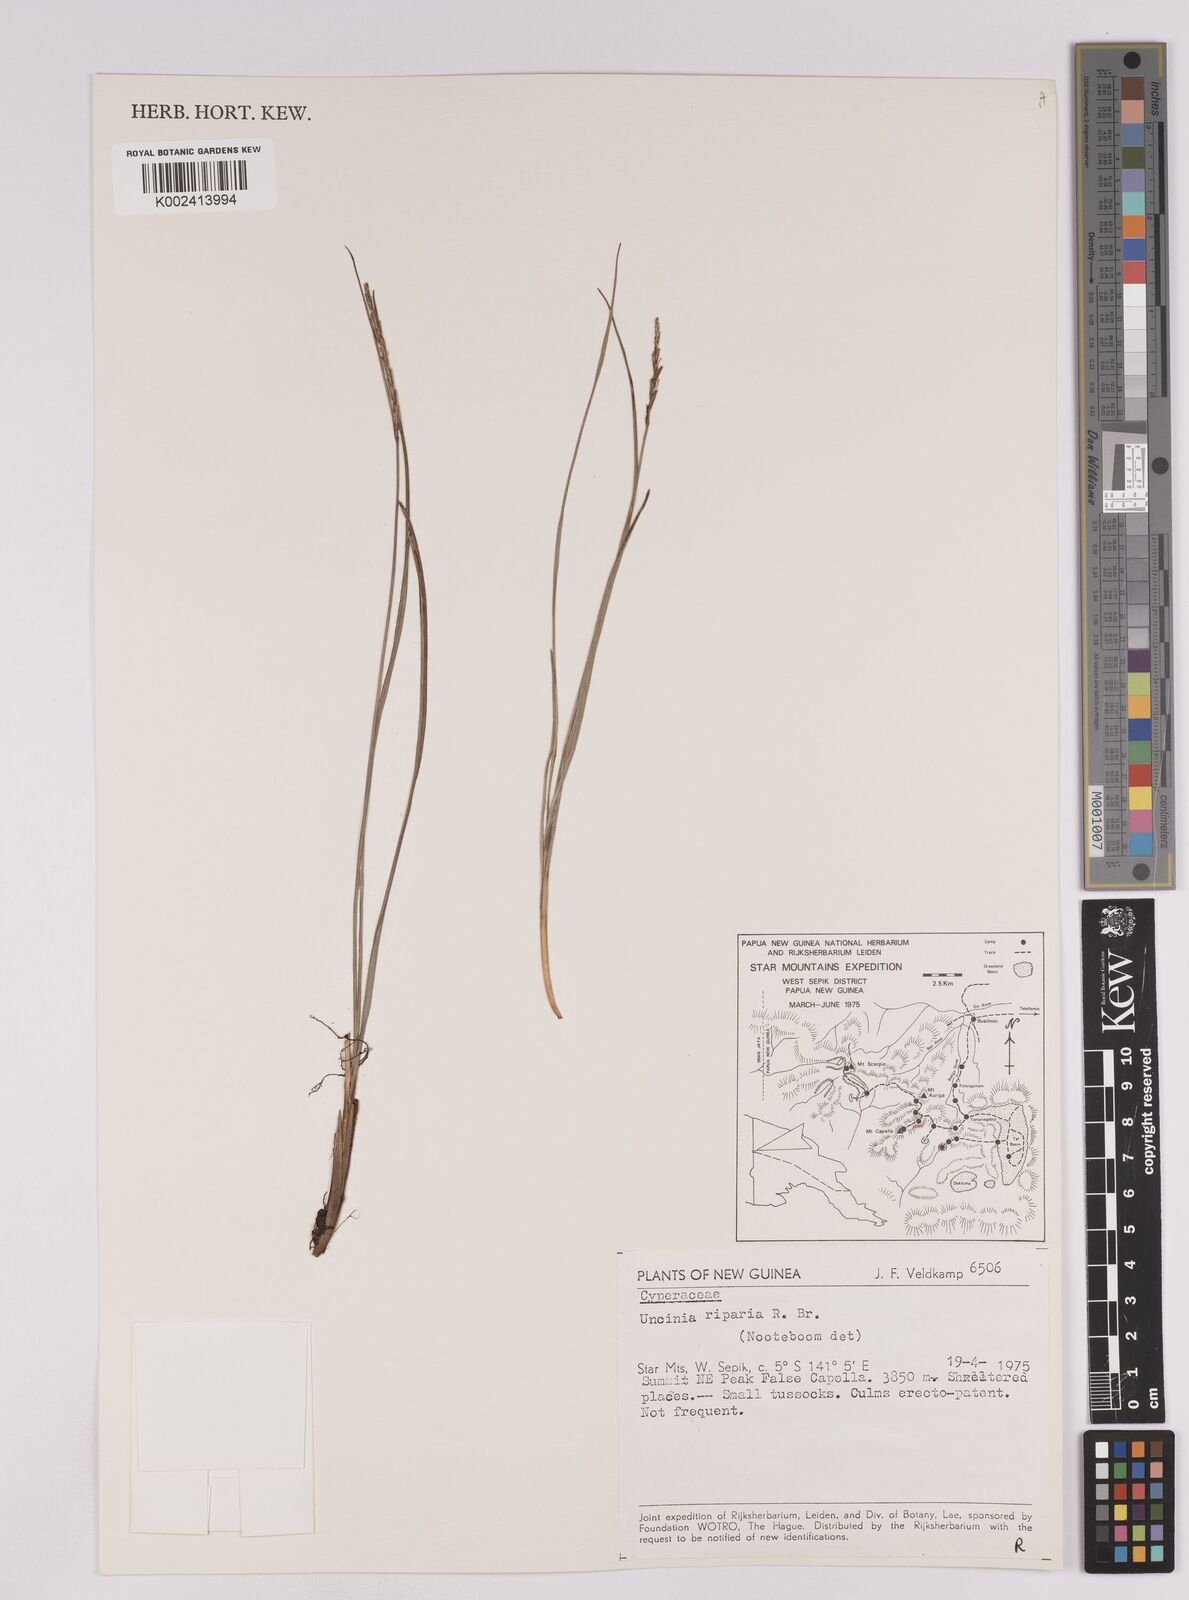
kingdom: Plantae
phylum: Tracheophyta
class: Liliopsida
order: Poales
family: Cyperaceae
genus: Carex
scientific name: Carex sclerophylla
